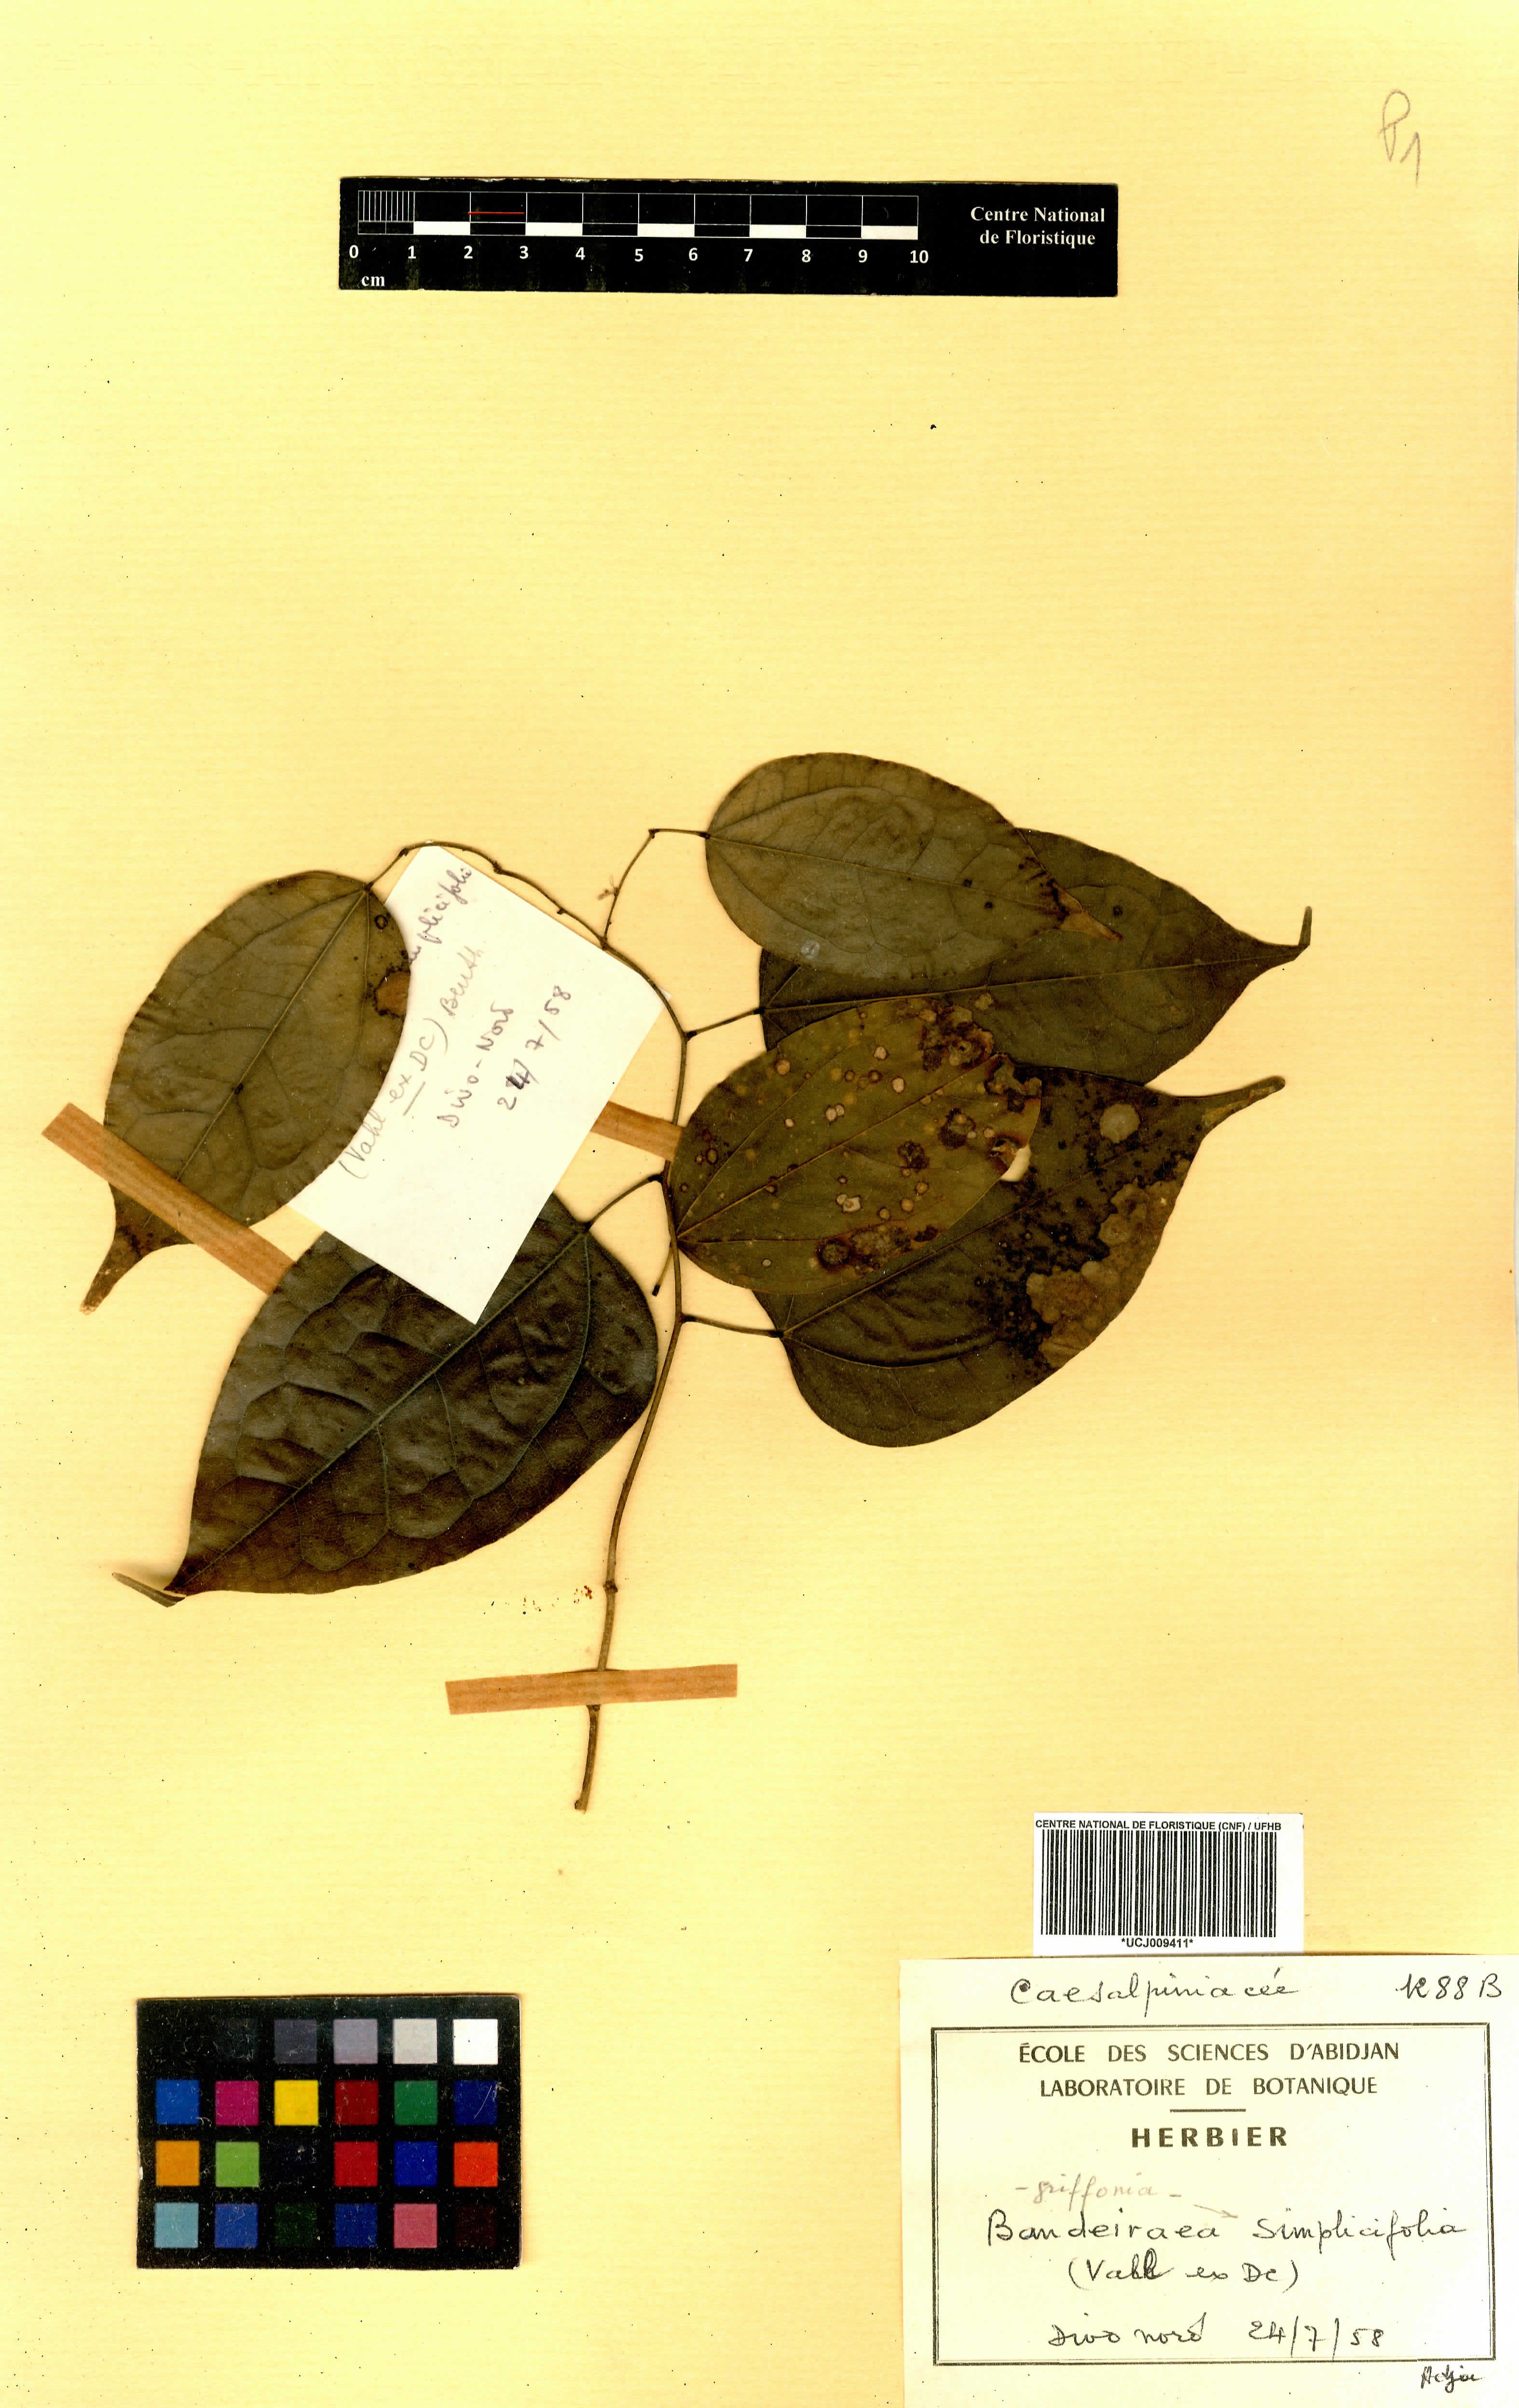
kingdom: Plantae
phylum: Tracheophyta
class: Magnoliopsida
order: Fabales
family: Fabaceae
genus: Griffonia
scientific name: Griffonia simplicifolia
